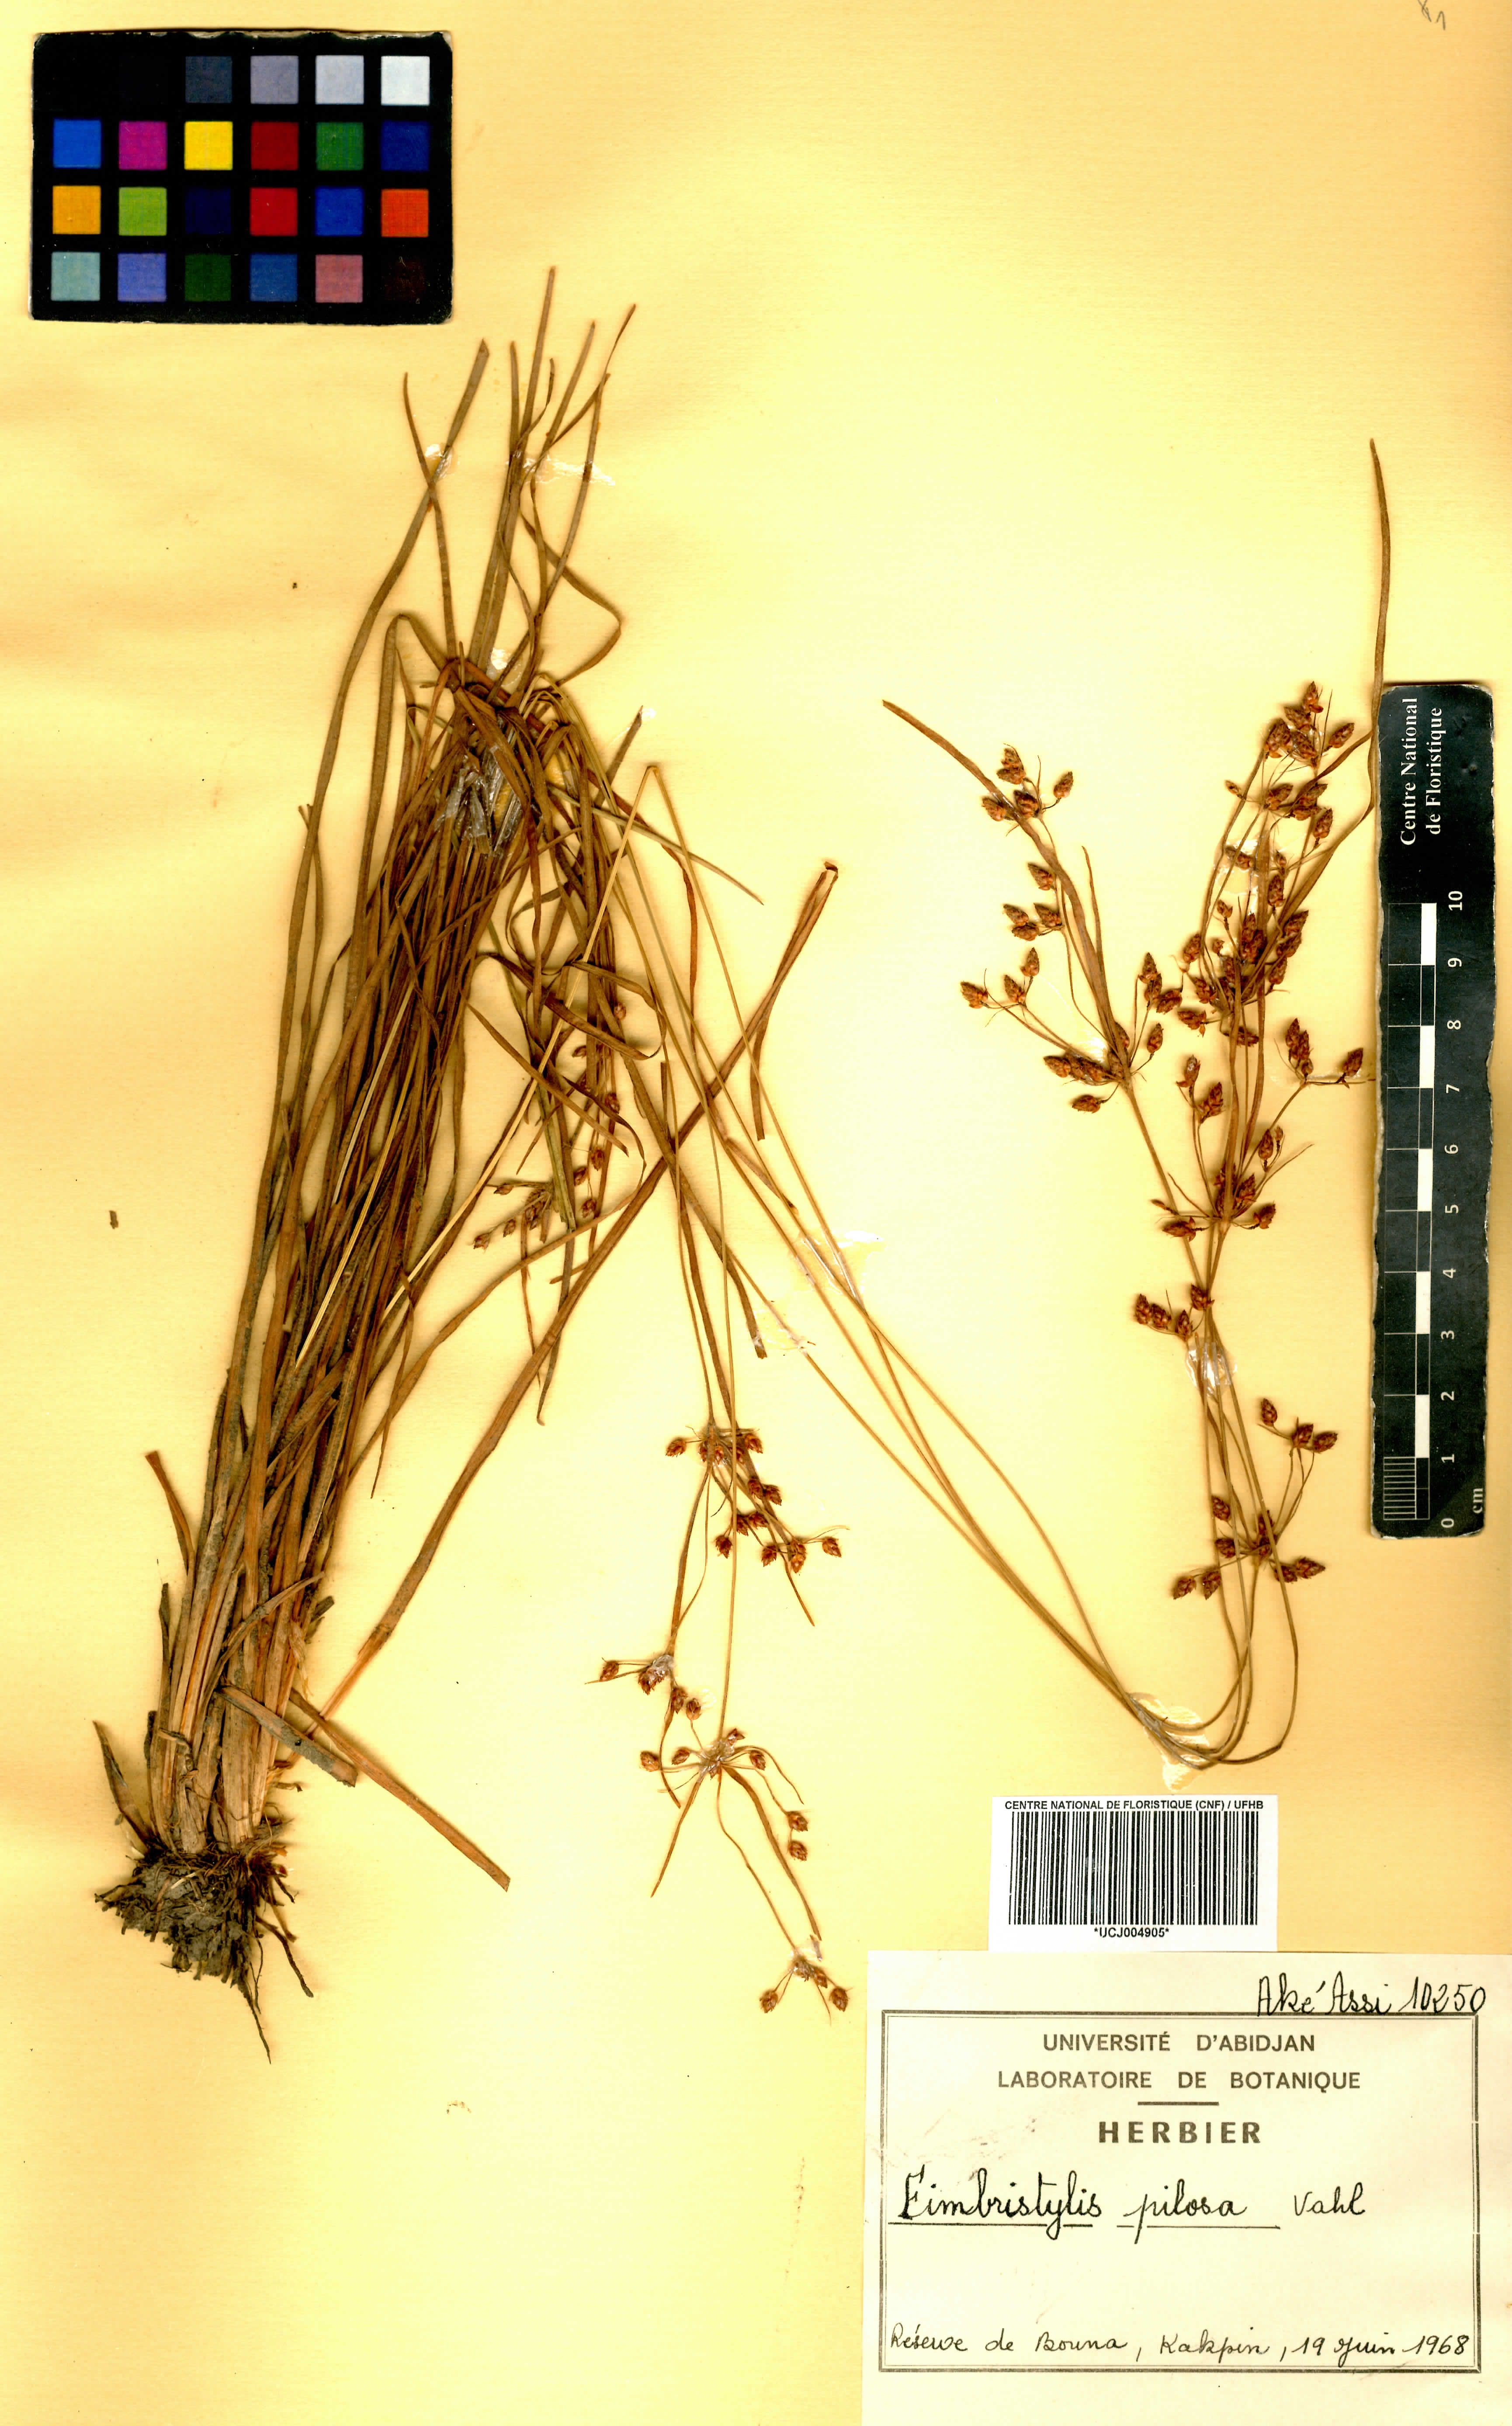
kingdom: Plantae
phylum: Tracheophyta
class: Liliopsida
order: Poales
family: Cyperaceae
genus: Fimbristylis
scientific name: Fimbristylis pilosa
